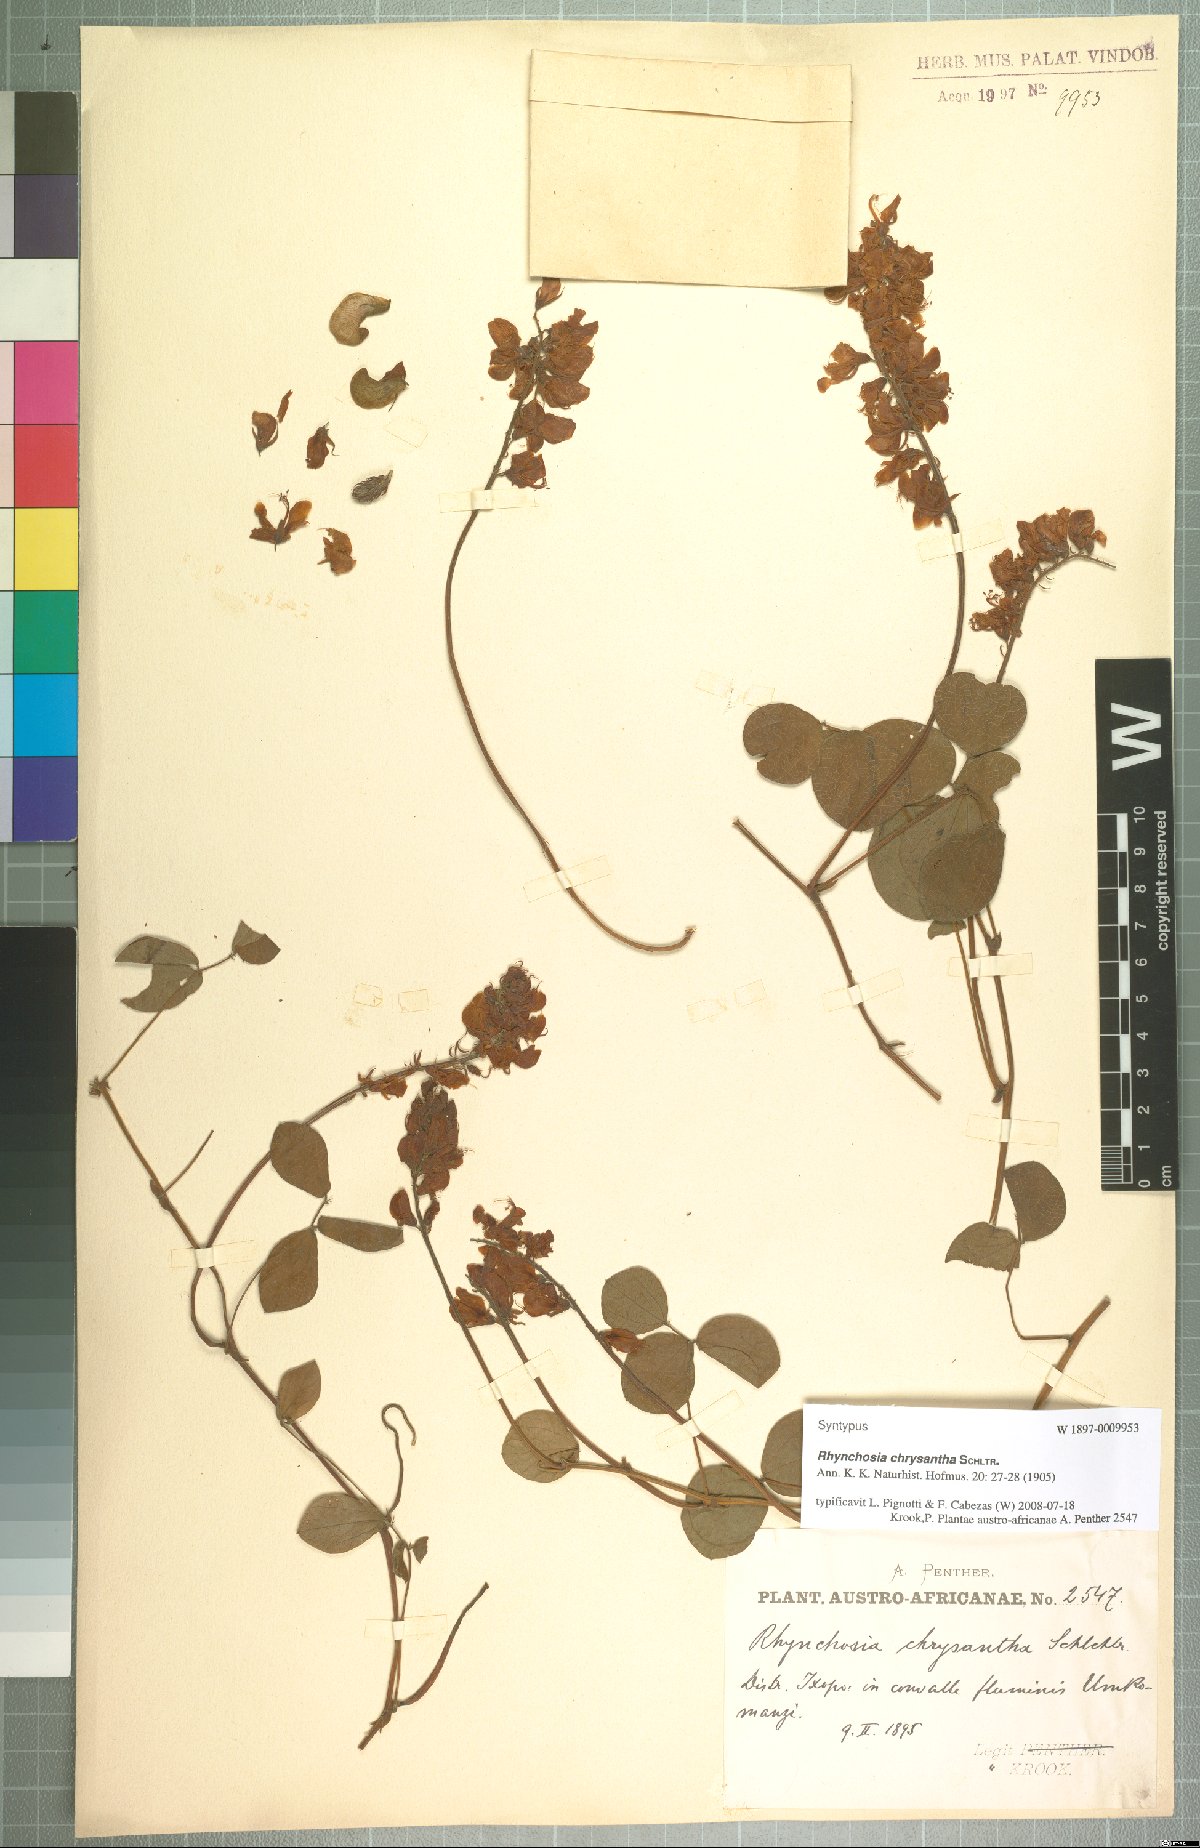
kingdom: Plantae
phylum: Tracheophyta
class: Magnoliopsida
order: Fabales
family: Fabaceae
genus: Rhynchosia
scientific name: Rhynchosia chrysantha
